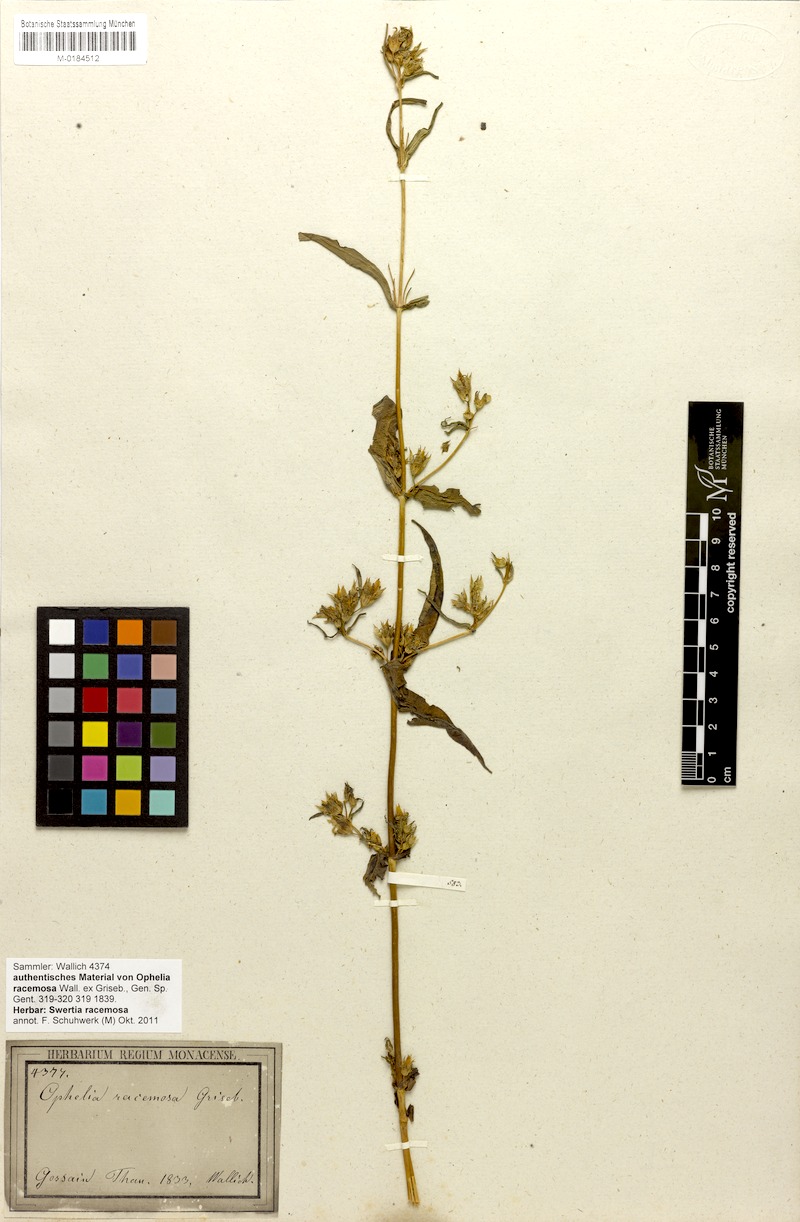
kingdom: Plantae
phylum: Tracheophyta
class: Magnoliopsida
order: Gentianales
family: Gentianaceae
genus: Swertia
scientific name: Swertia racemosa
